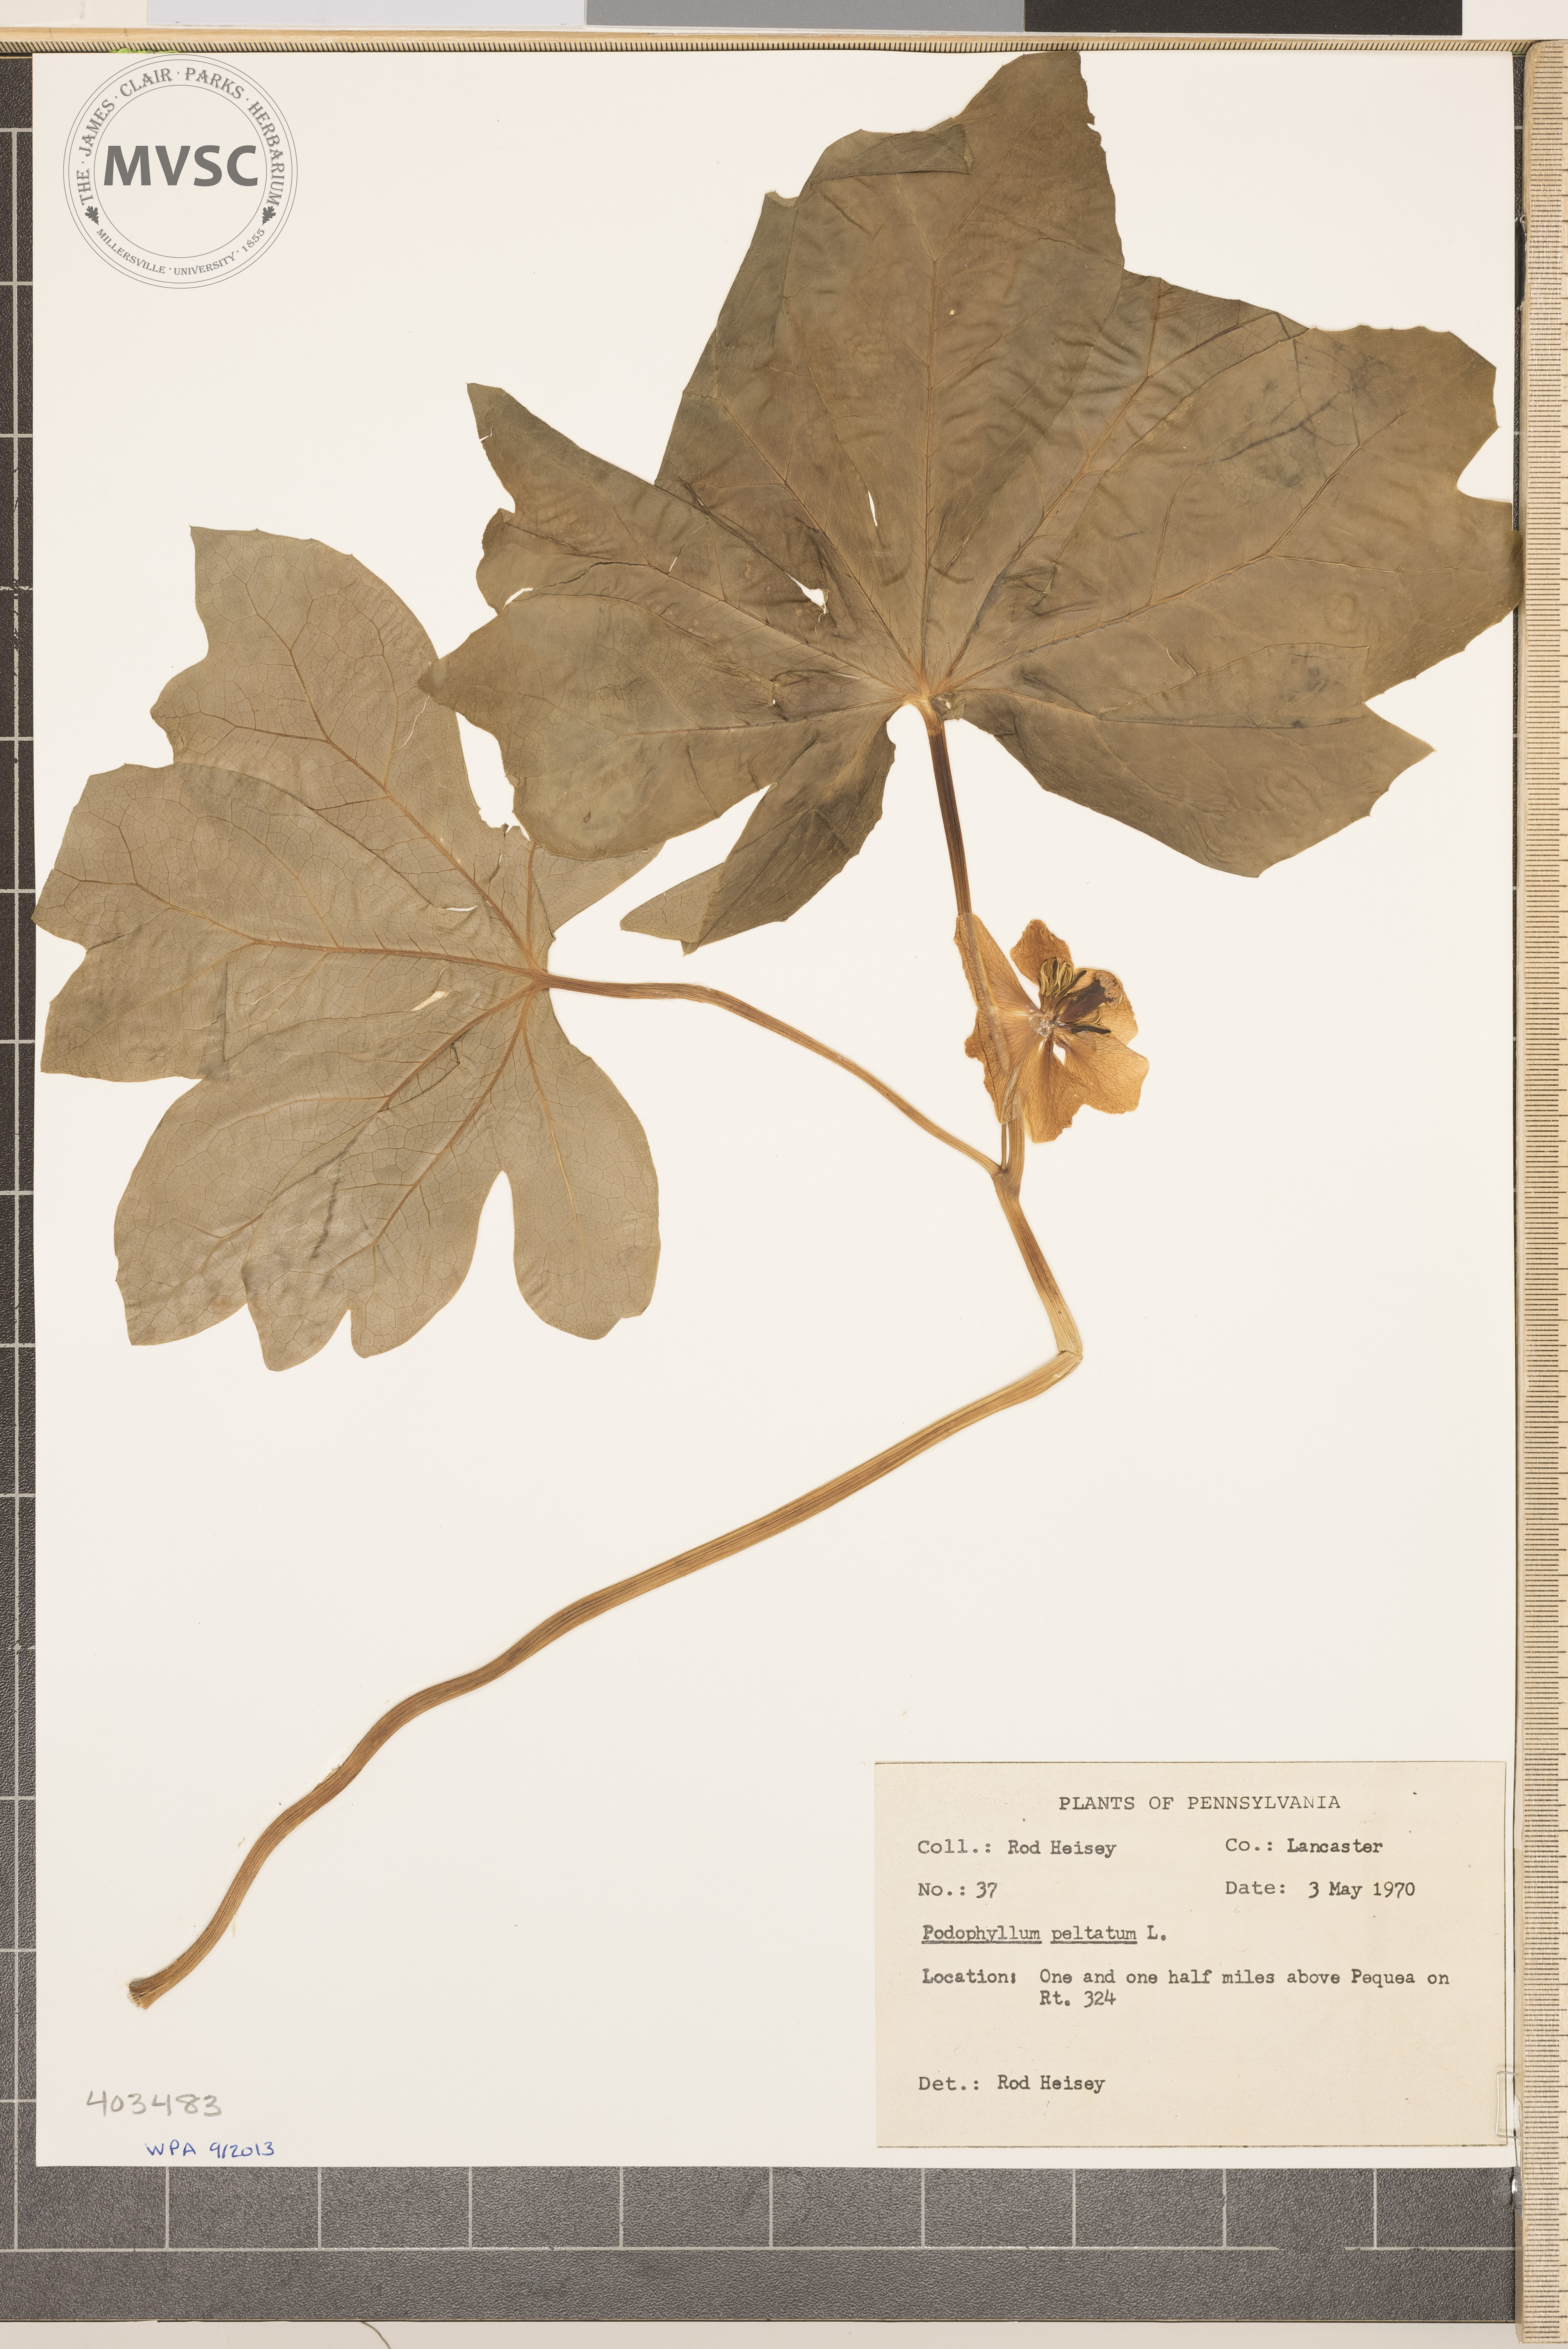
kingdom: Plantae
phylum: Tracheophyta
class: Magnoliopsida
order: Ranunculales
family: Berberidaceae
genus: Podophyllum
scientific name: Podophyllum peltatum
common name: May-Apple
